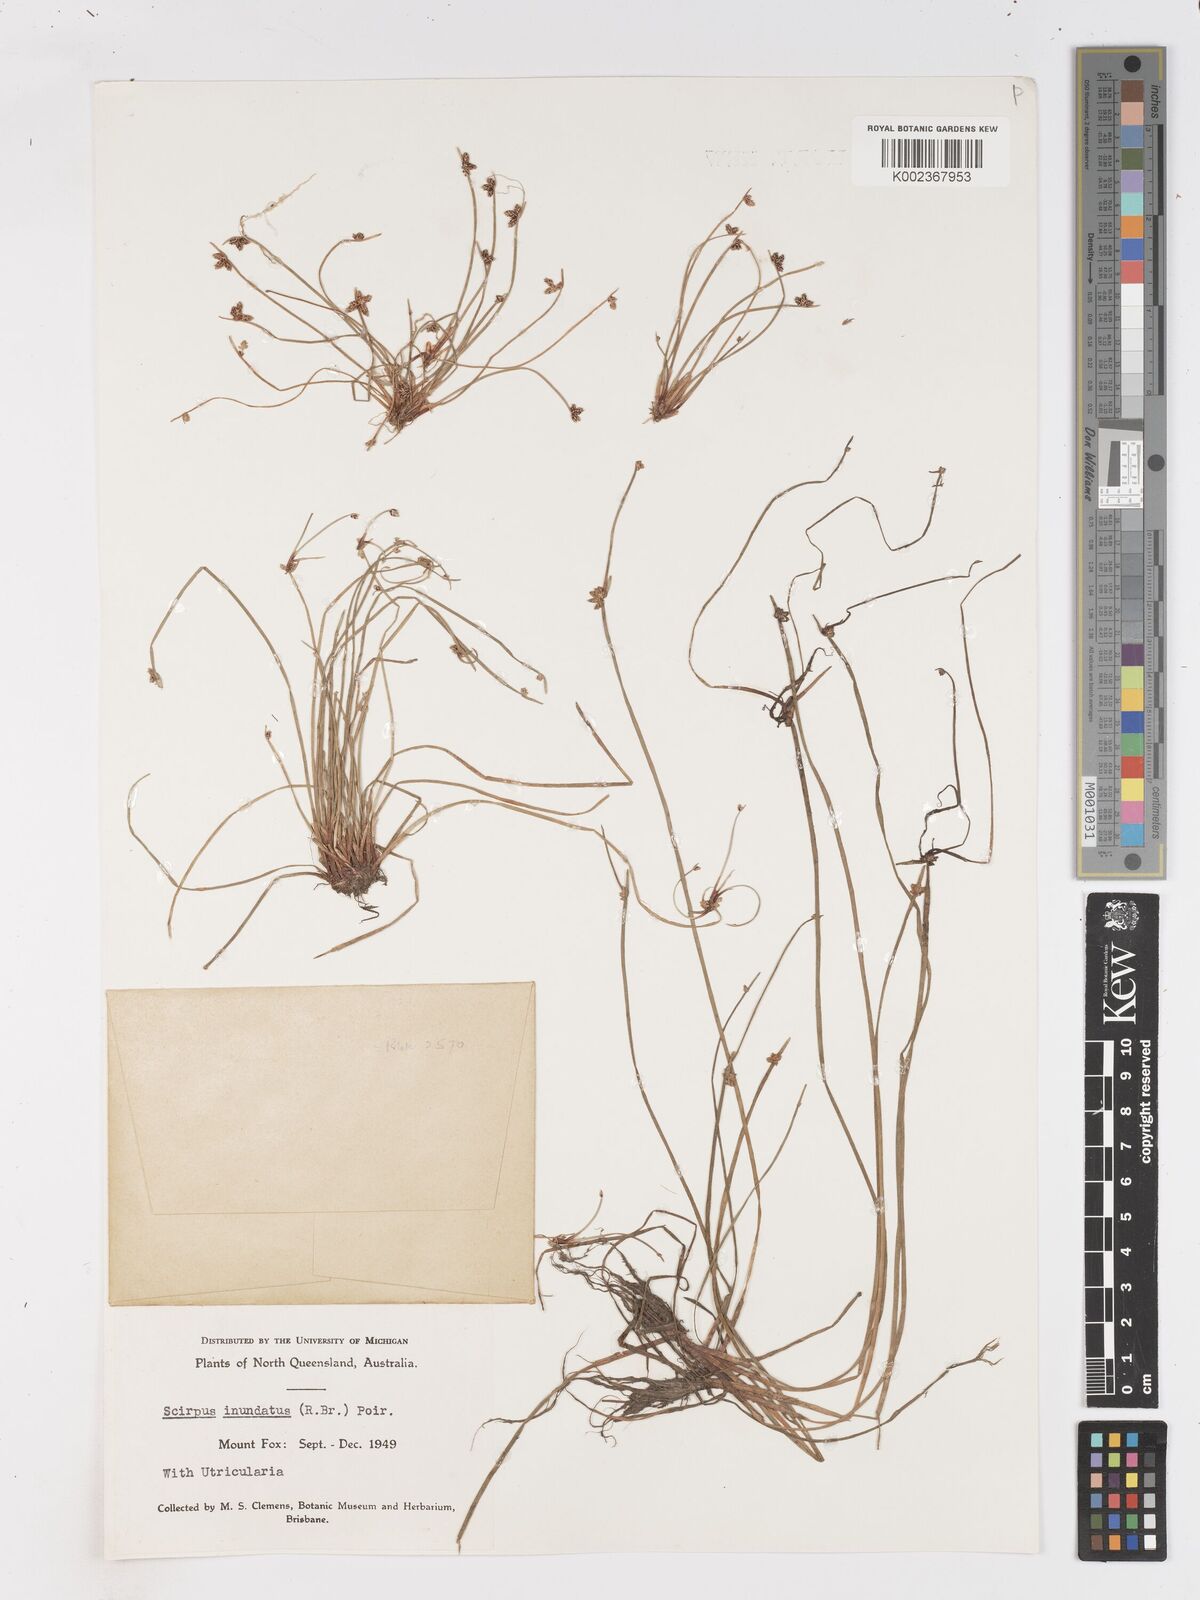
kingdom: Plantae
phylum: Tracheophyta
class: Liliopsida
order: Poales
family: Cyperaceae
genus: Isolepis
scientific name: Isolepis inundata
